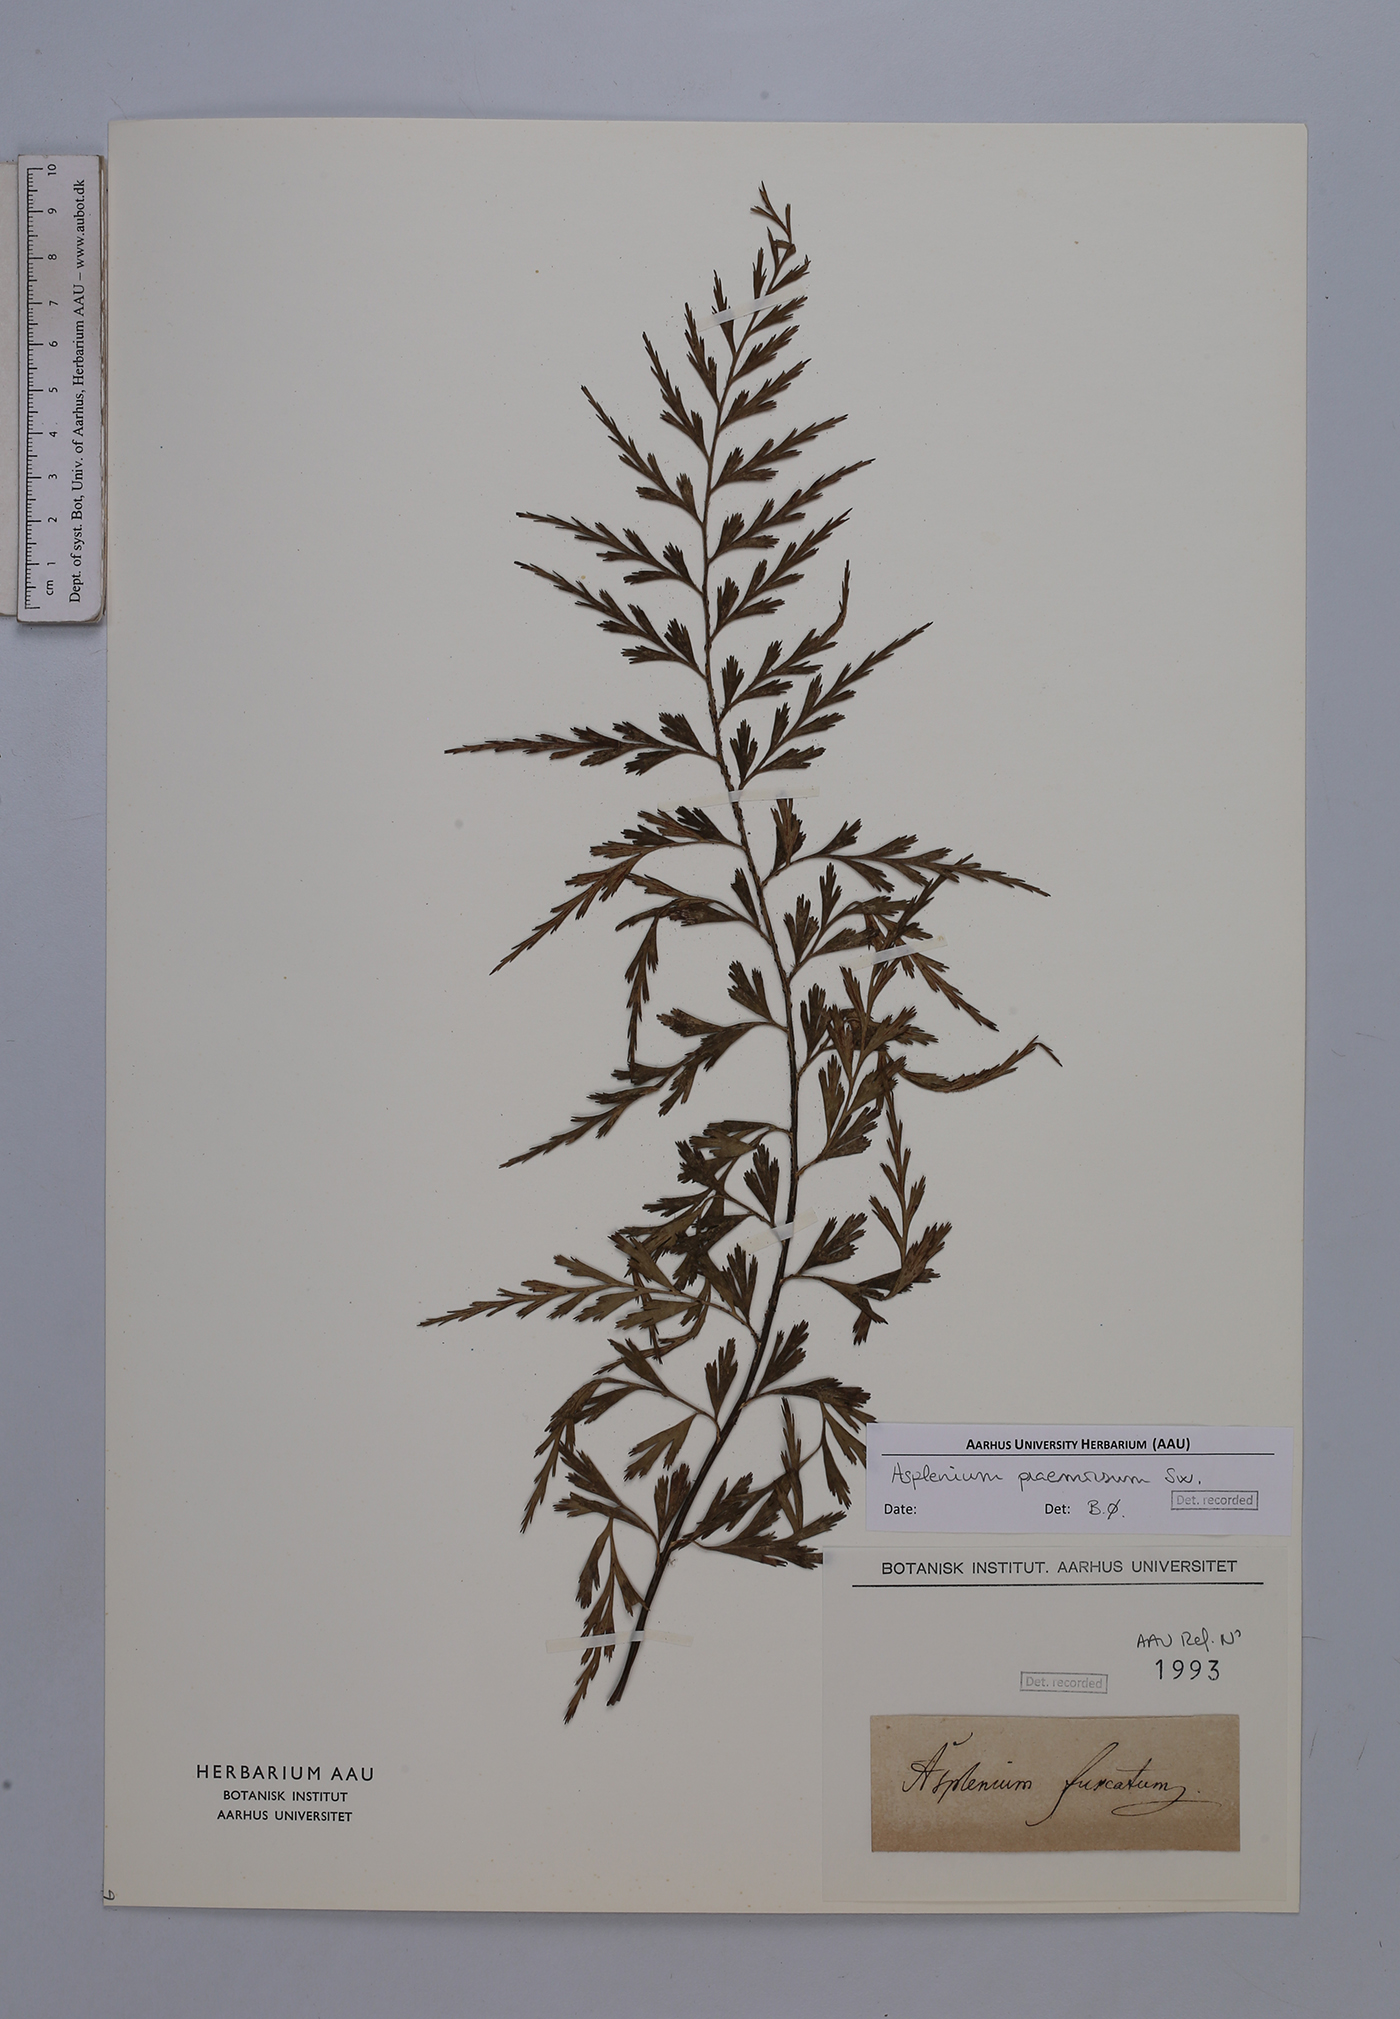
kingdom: Plantae
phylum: Tracheophyta
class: Polypodiopsida
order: Polypodiales
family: Aspleniaceae
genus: Asplenium
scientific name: Asplenium praemorsum
